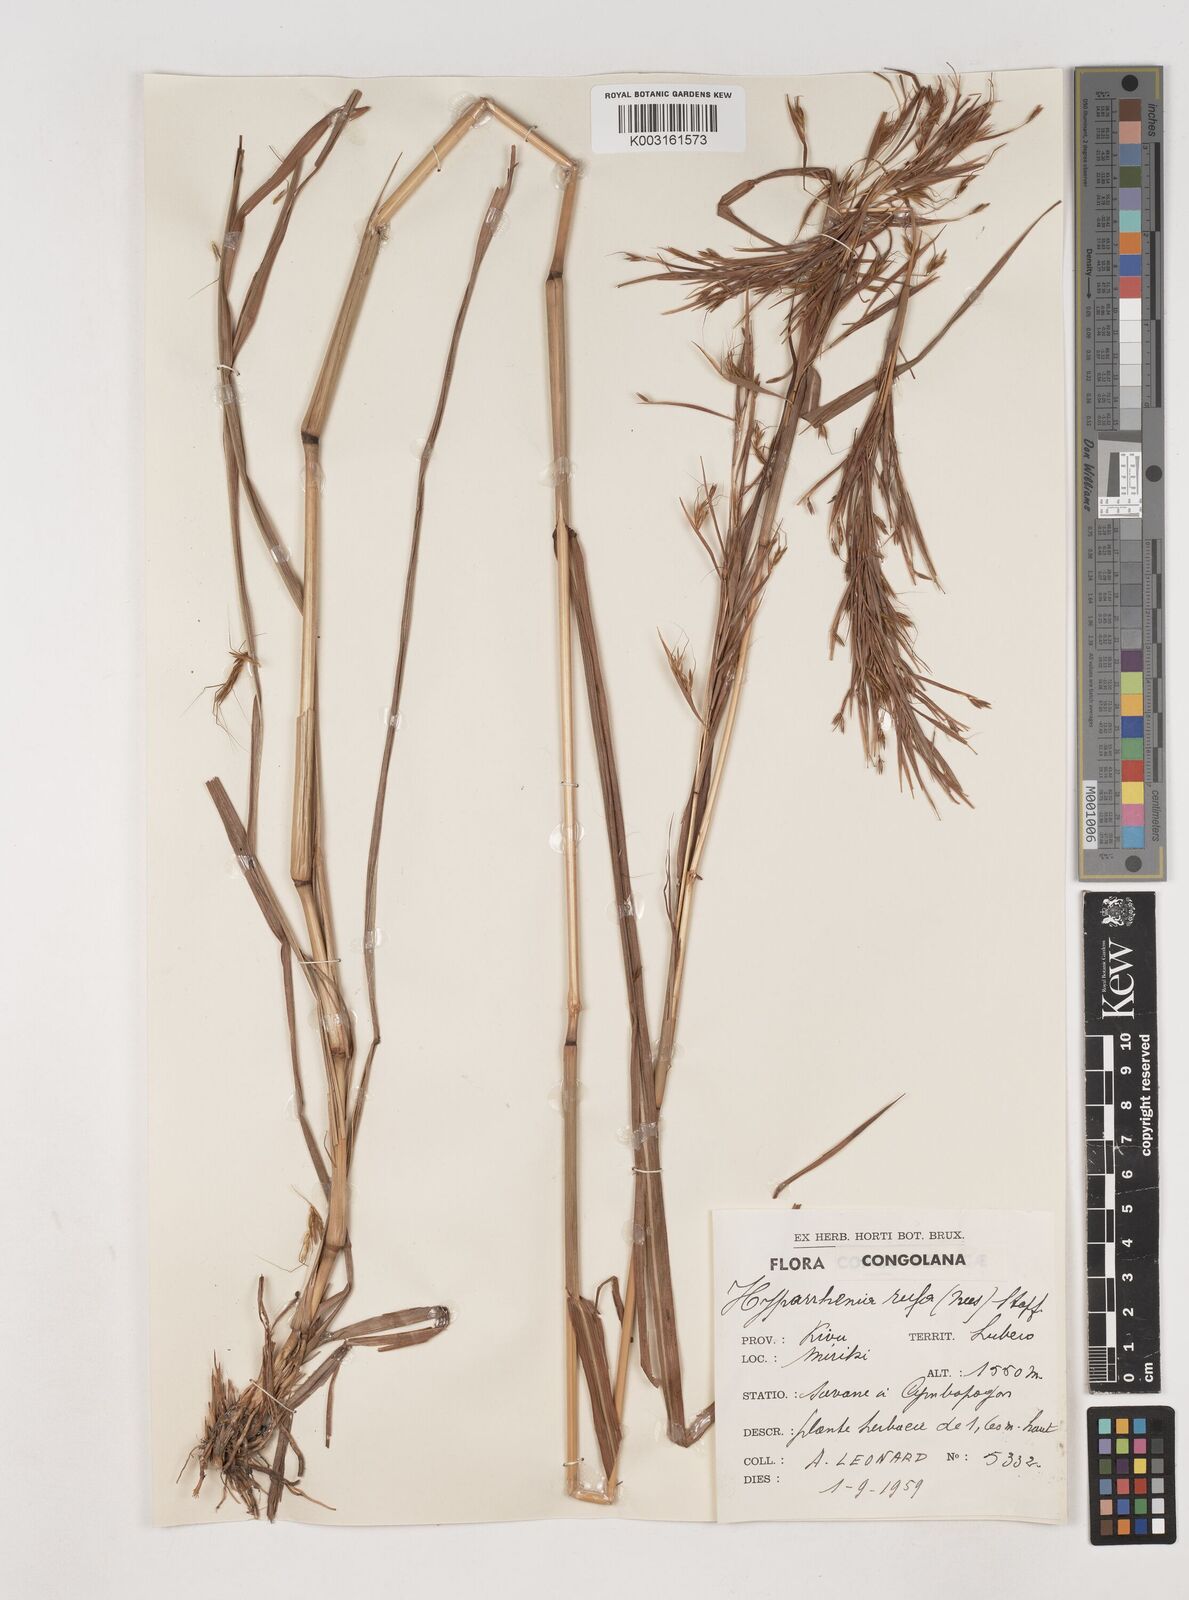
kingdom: Plantae
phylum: Tracheophyta
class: Liliopsida
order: Poales
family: Poaceae
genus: Hyparrhenia
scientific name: Hyparrhenia rufa
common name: Jaraguagrass
